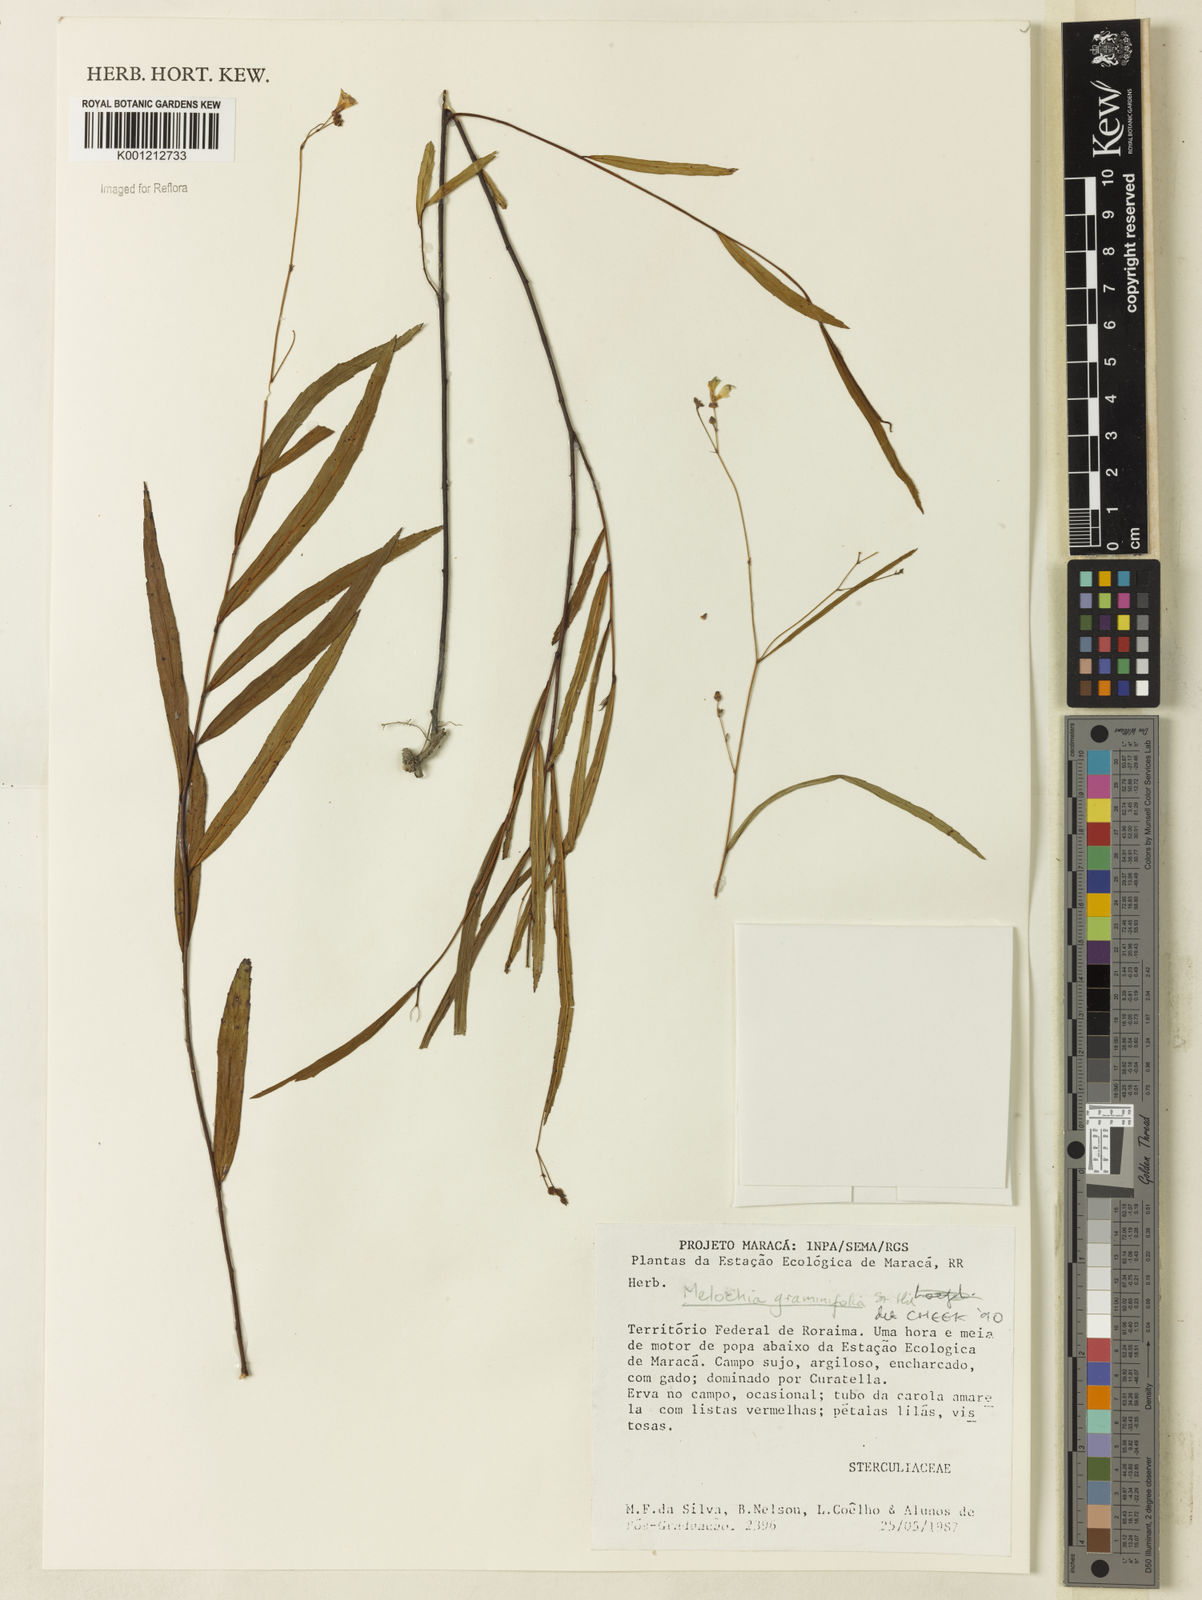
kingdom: Plantae
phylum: Tracheophyta
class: Magnoliopsida
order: Malvales
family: Malvaceae
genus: Melochia
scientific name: Melochia graminifolia
